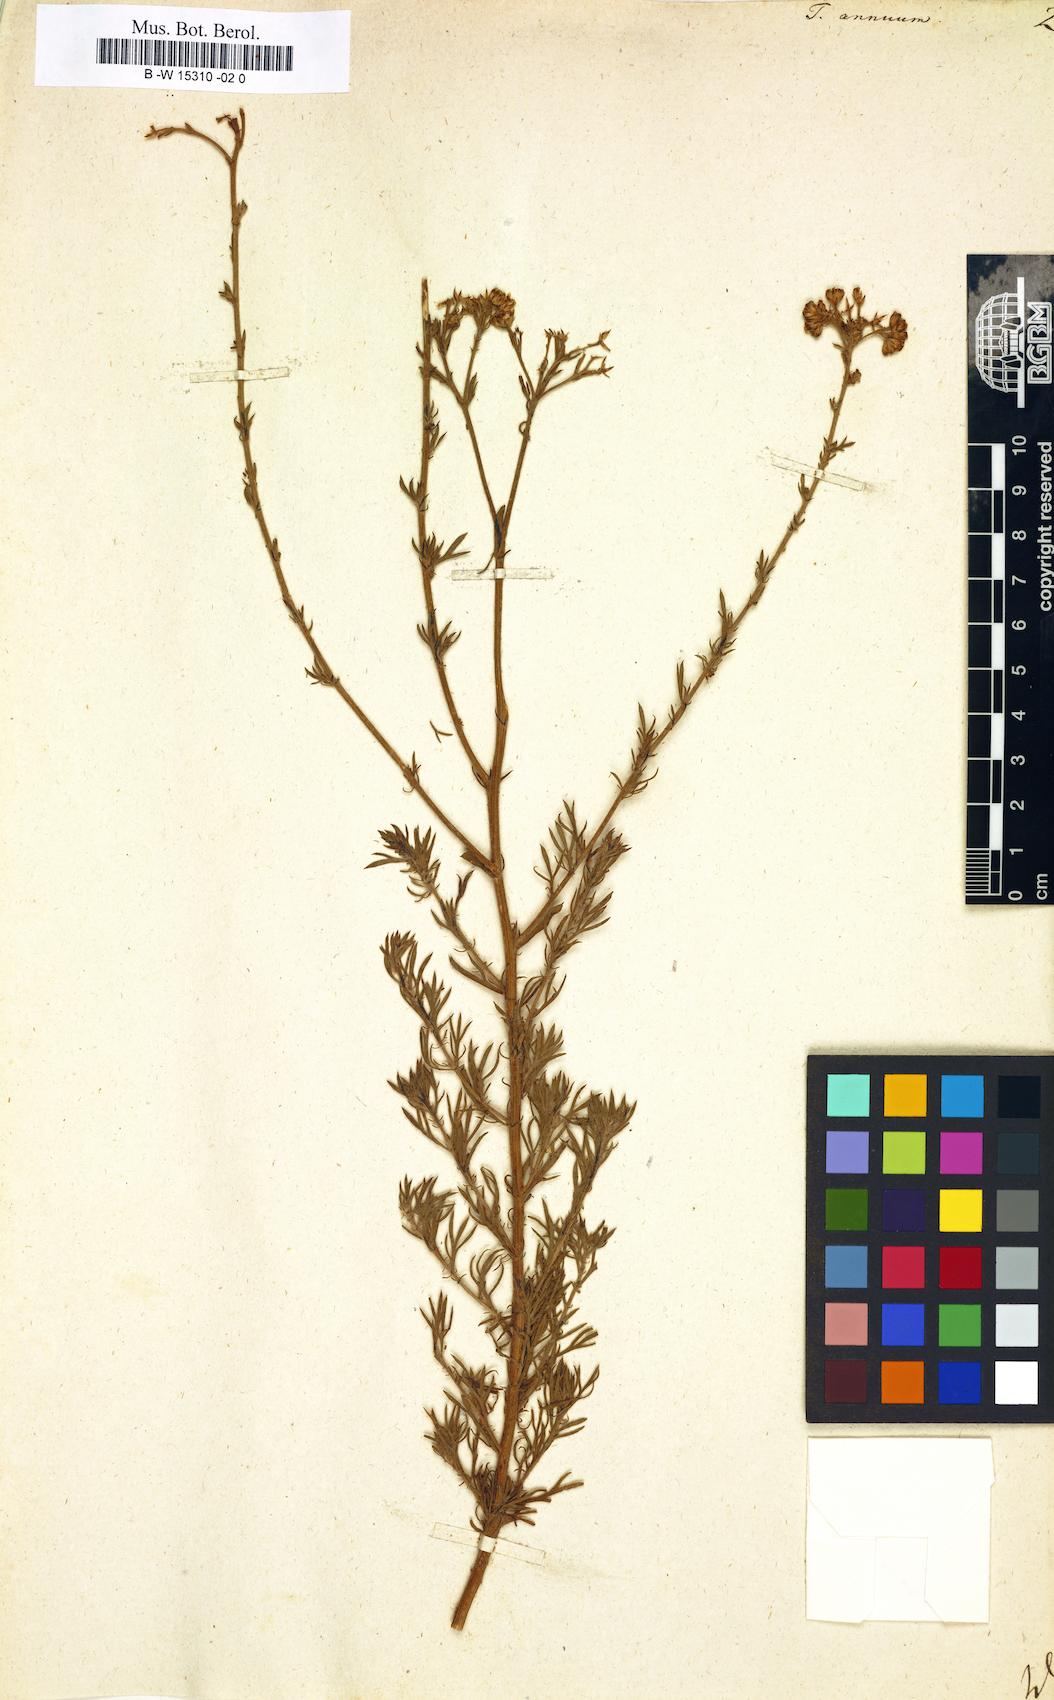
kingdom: Plantae
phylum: Tracheophyta
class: Magnoliopsida
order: Asterales
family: Asteraceae
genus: Vogtia
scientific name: Vogtia annua
